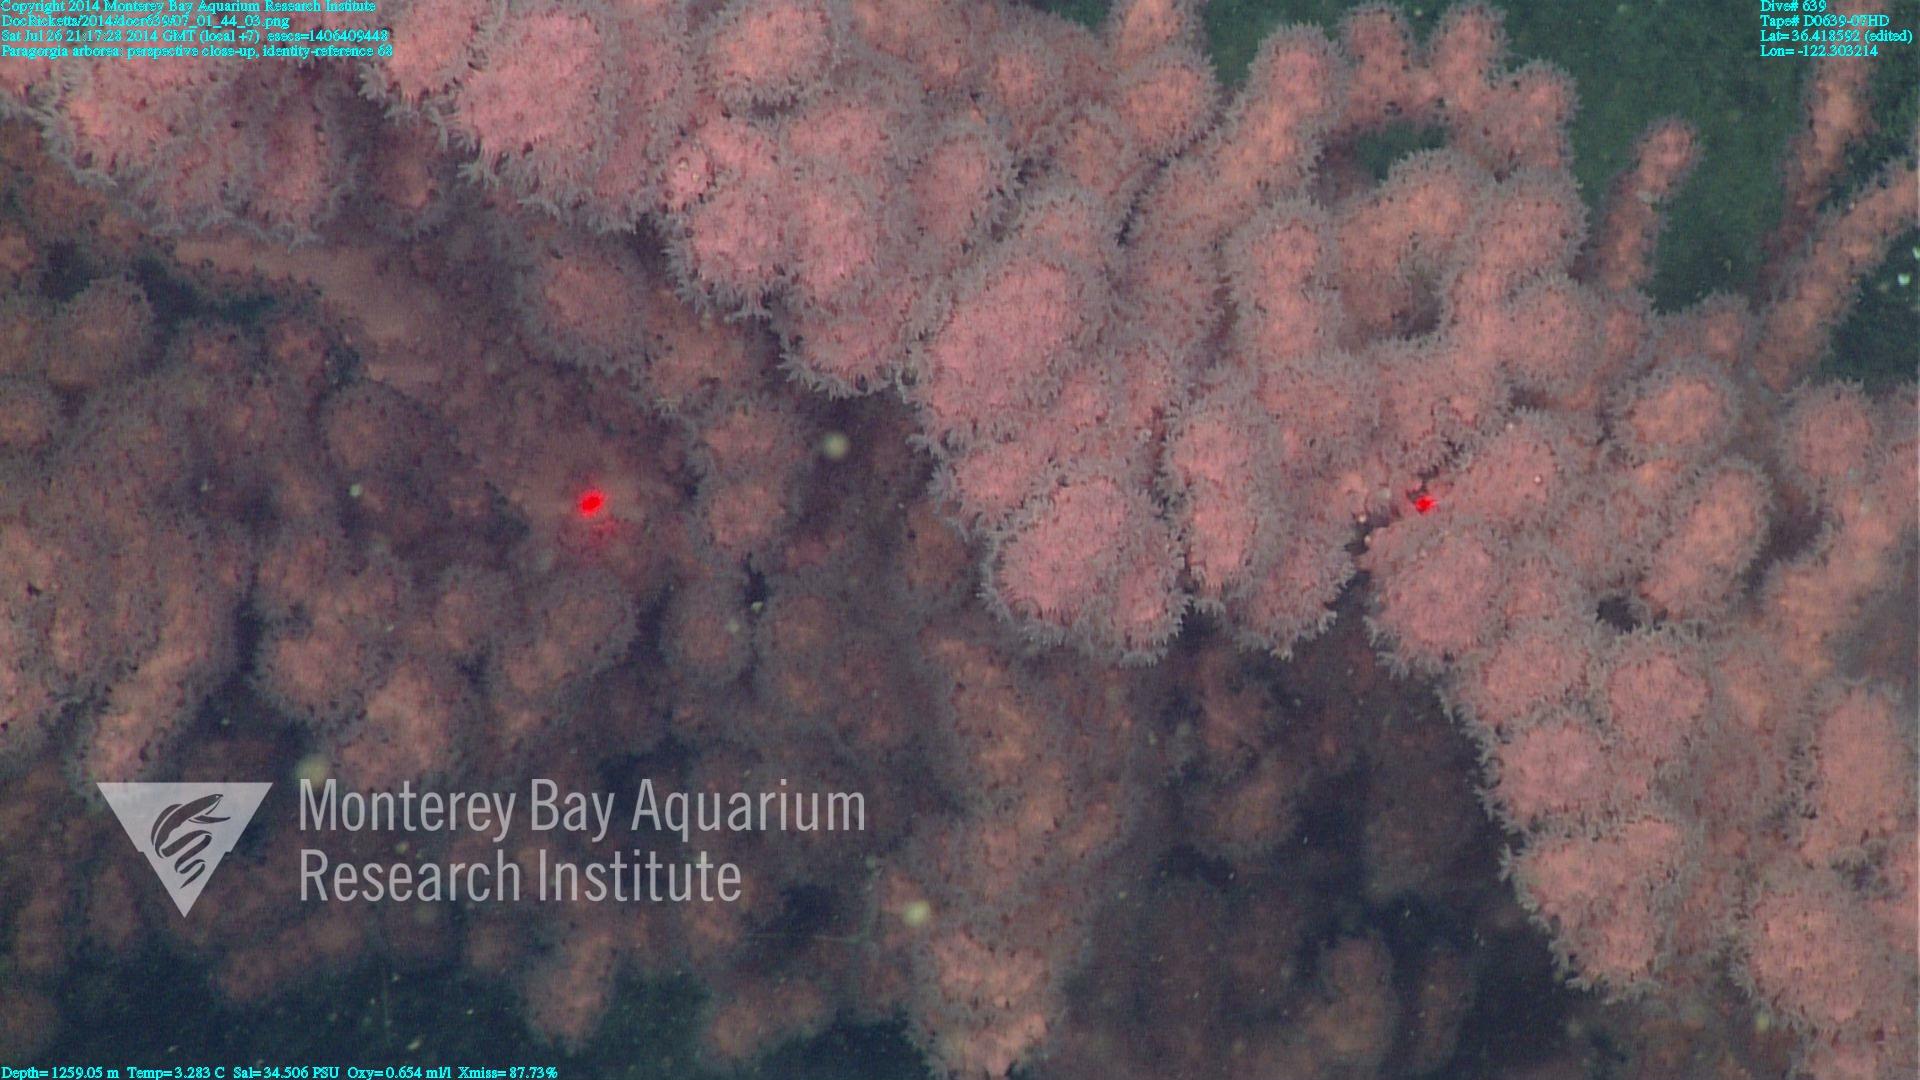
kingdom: Animalia
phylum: Cnidaria
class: Anthozoa
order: Scleralcyonacea
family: Coralliidae
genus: Paragorgia
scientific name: Paragorgia arborea
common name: Bubble gum coral
